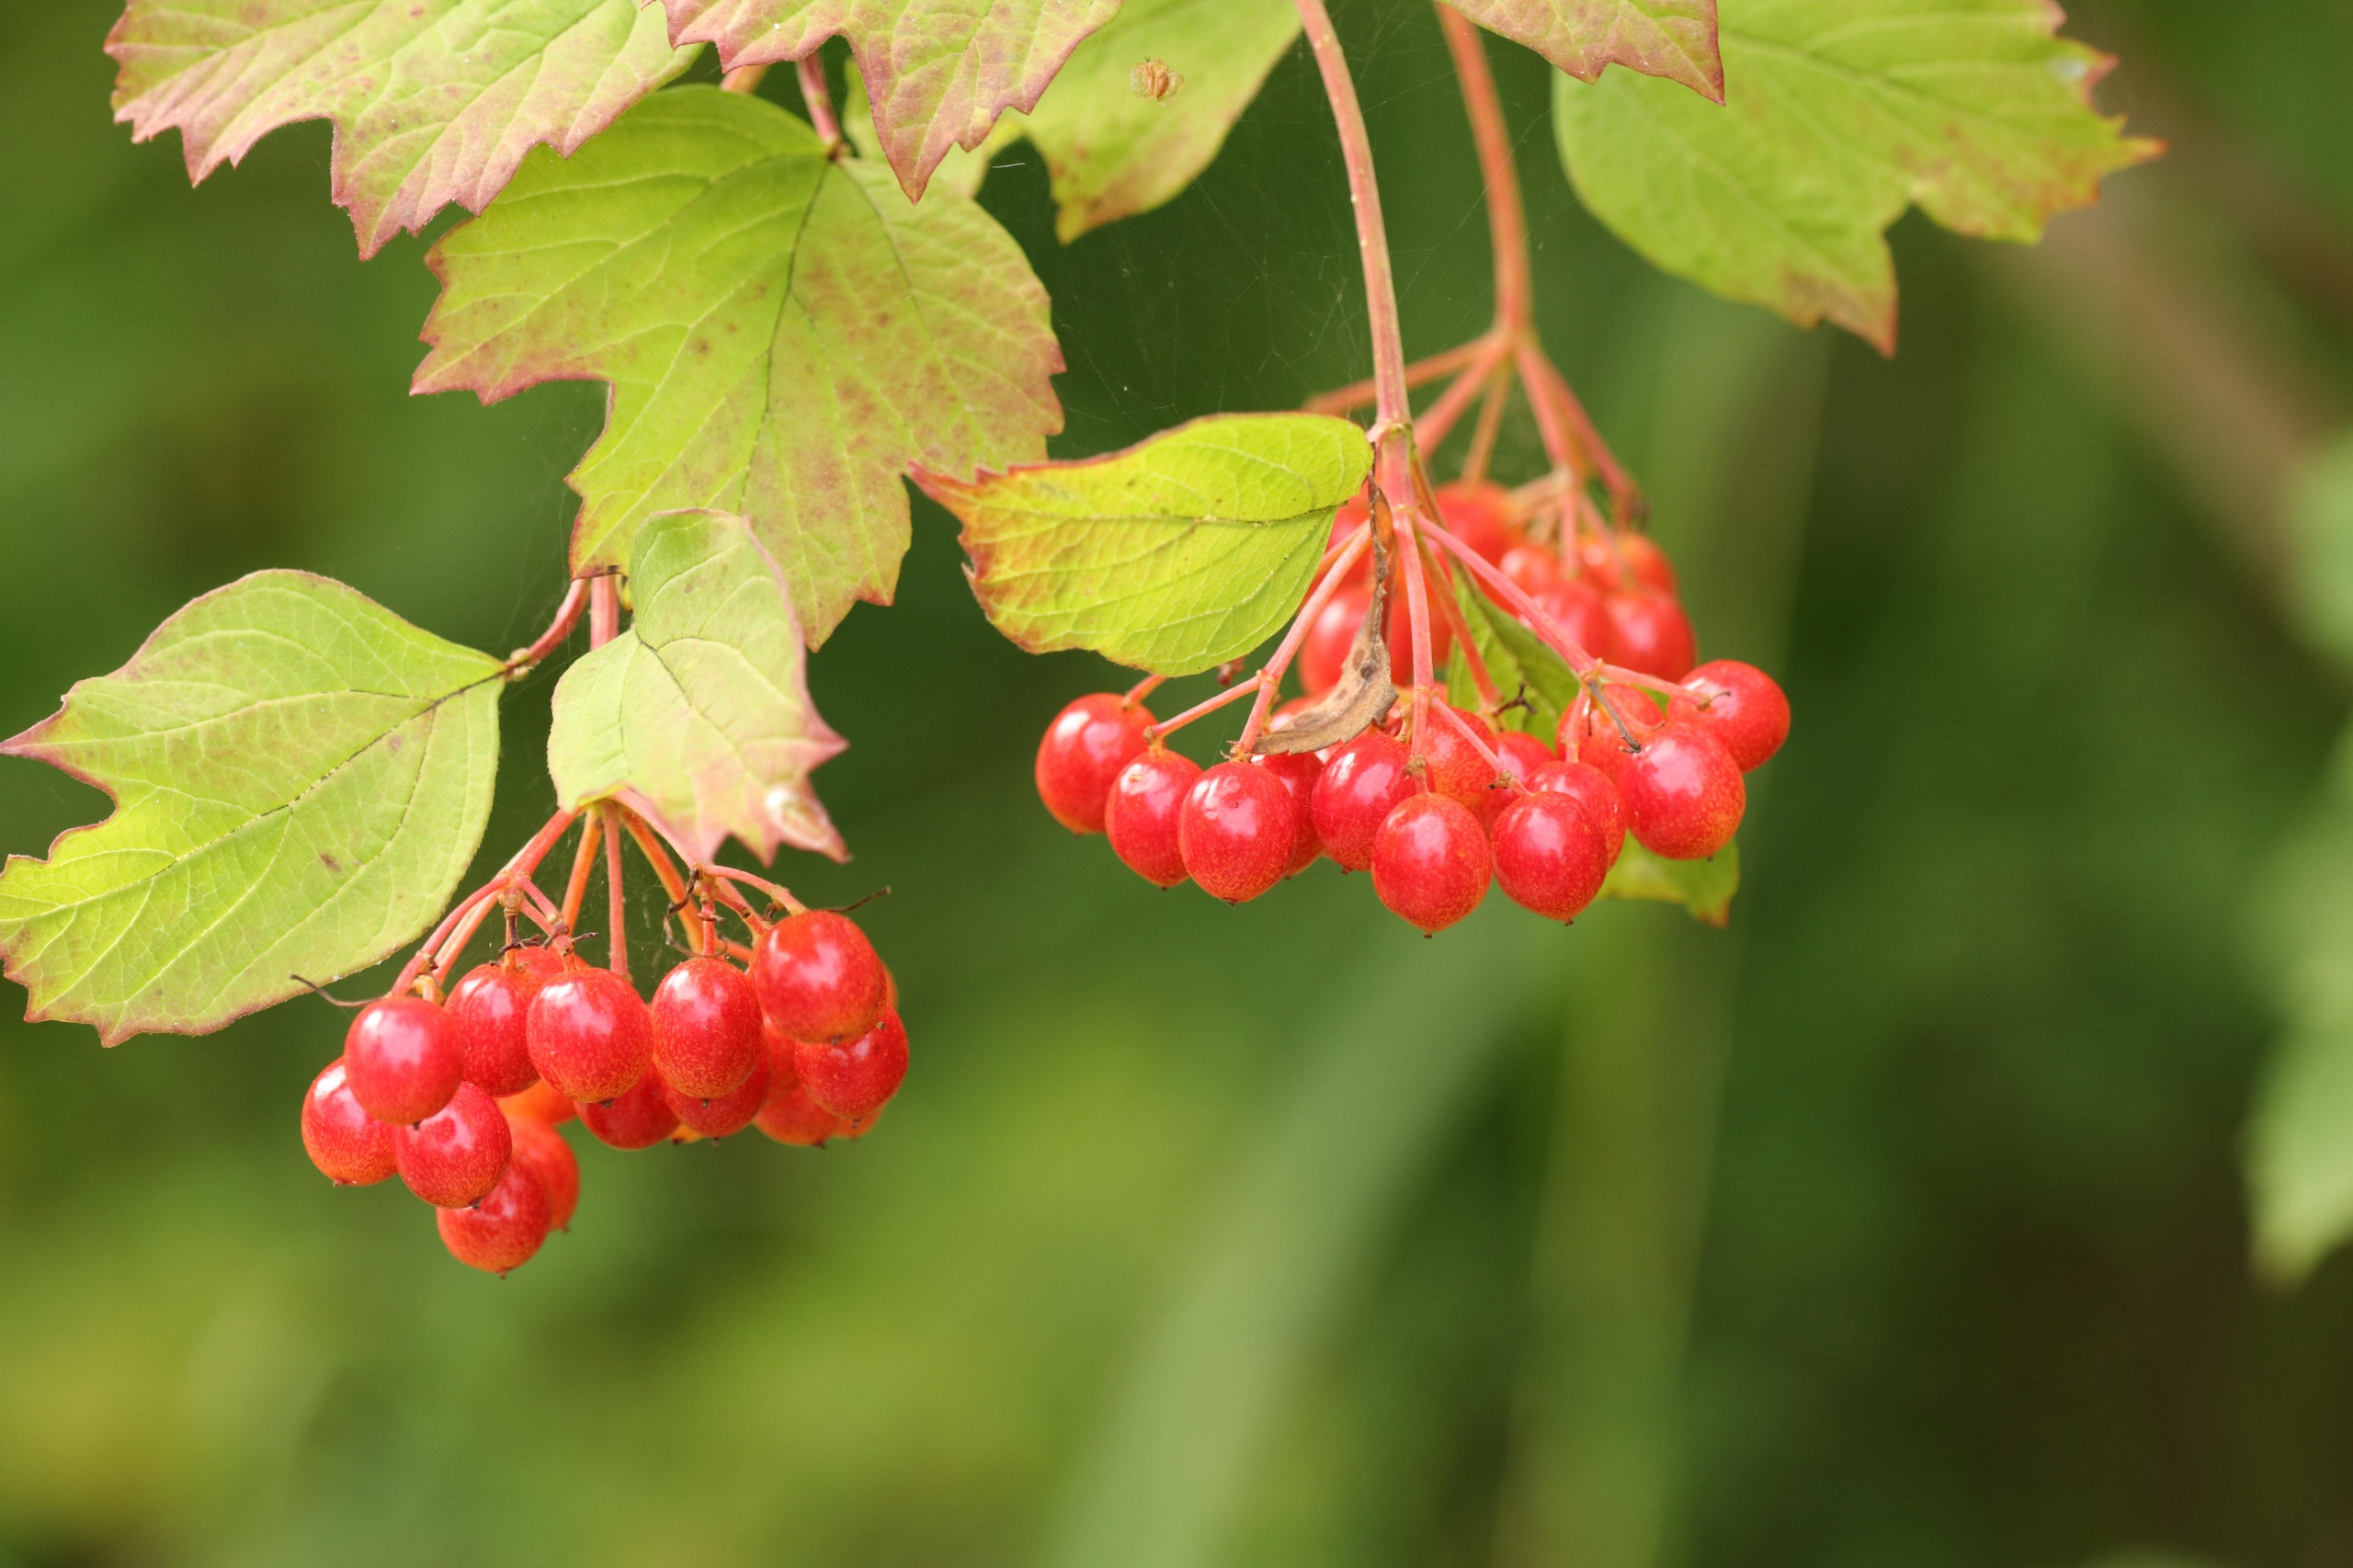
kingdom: Plantae
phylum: Tracheophyta
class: Magnoliopsida
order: Dipsacales
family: Viburnaceae
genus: Viburnum
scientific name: Viburnum opulus
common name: Kvalkved
